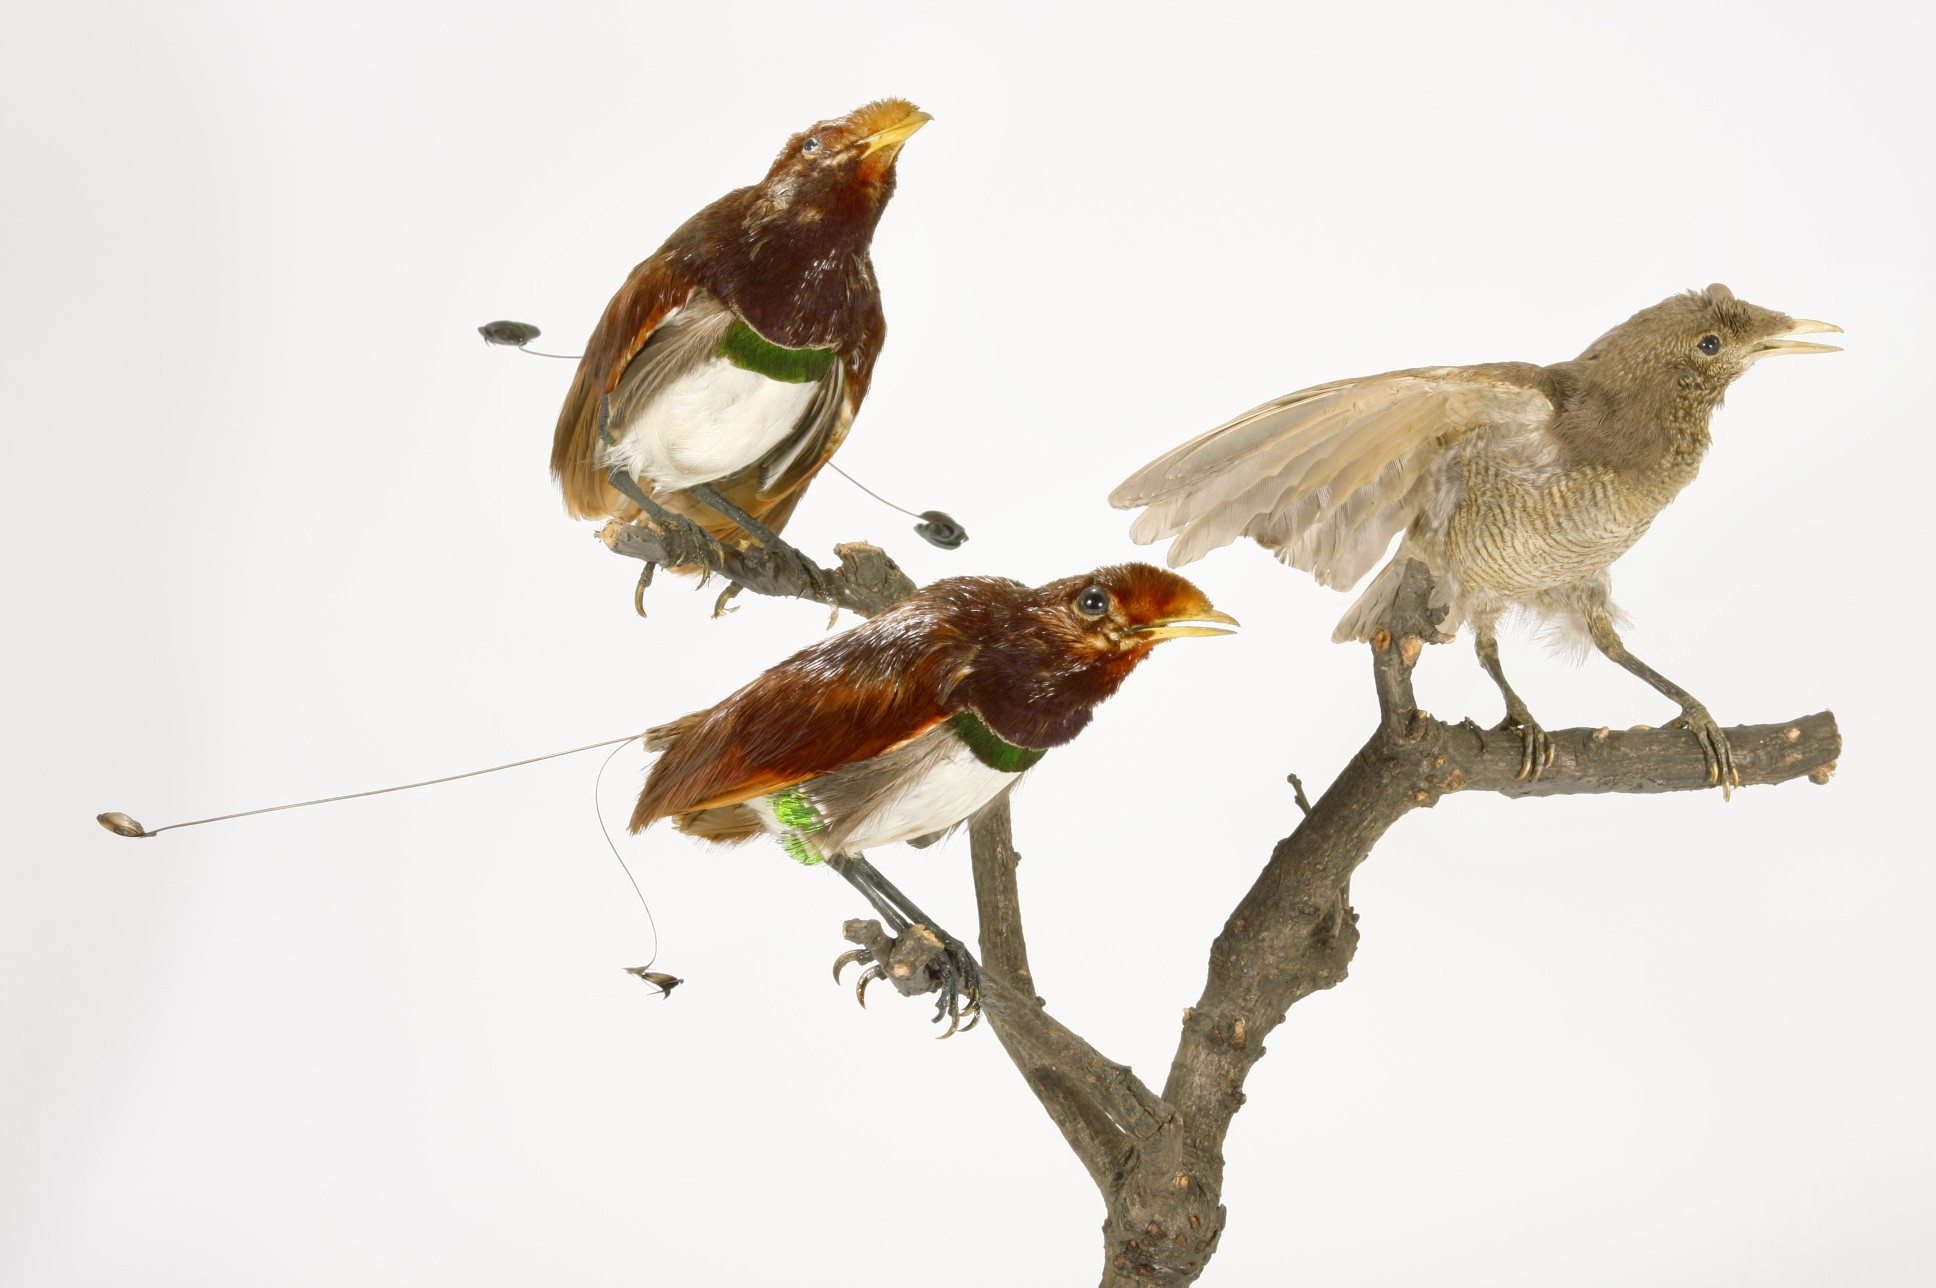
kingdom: Animalia
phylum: Chordata
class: Aves
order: Passeriformes
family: Paradisaeidae
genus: Cicinnurus
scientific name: Cicinnurus regius
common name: King bird-of-paradise
